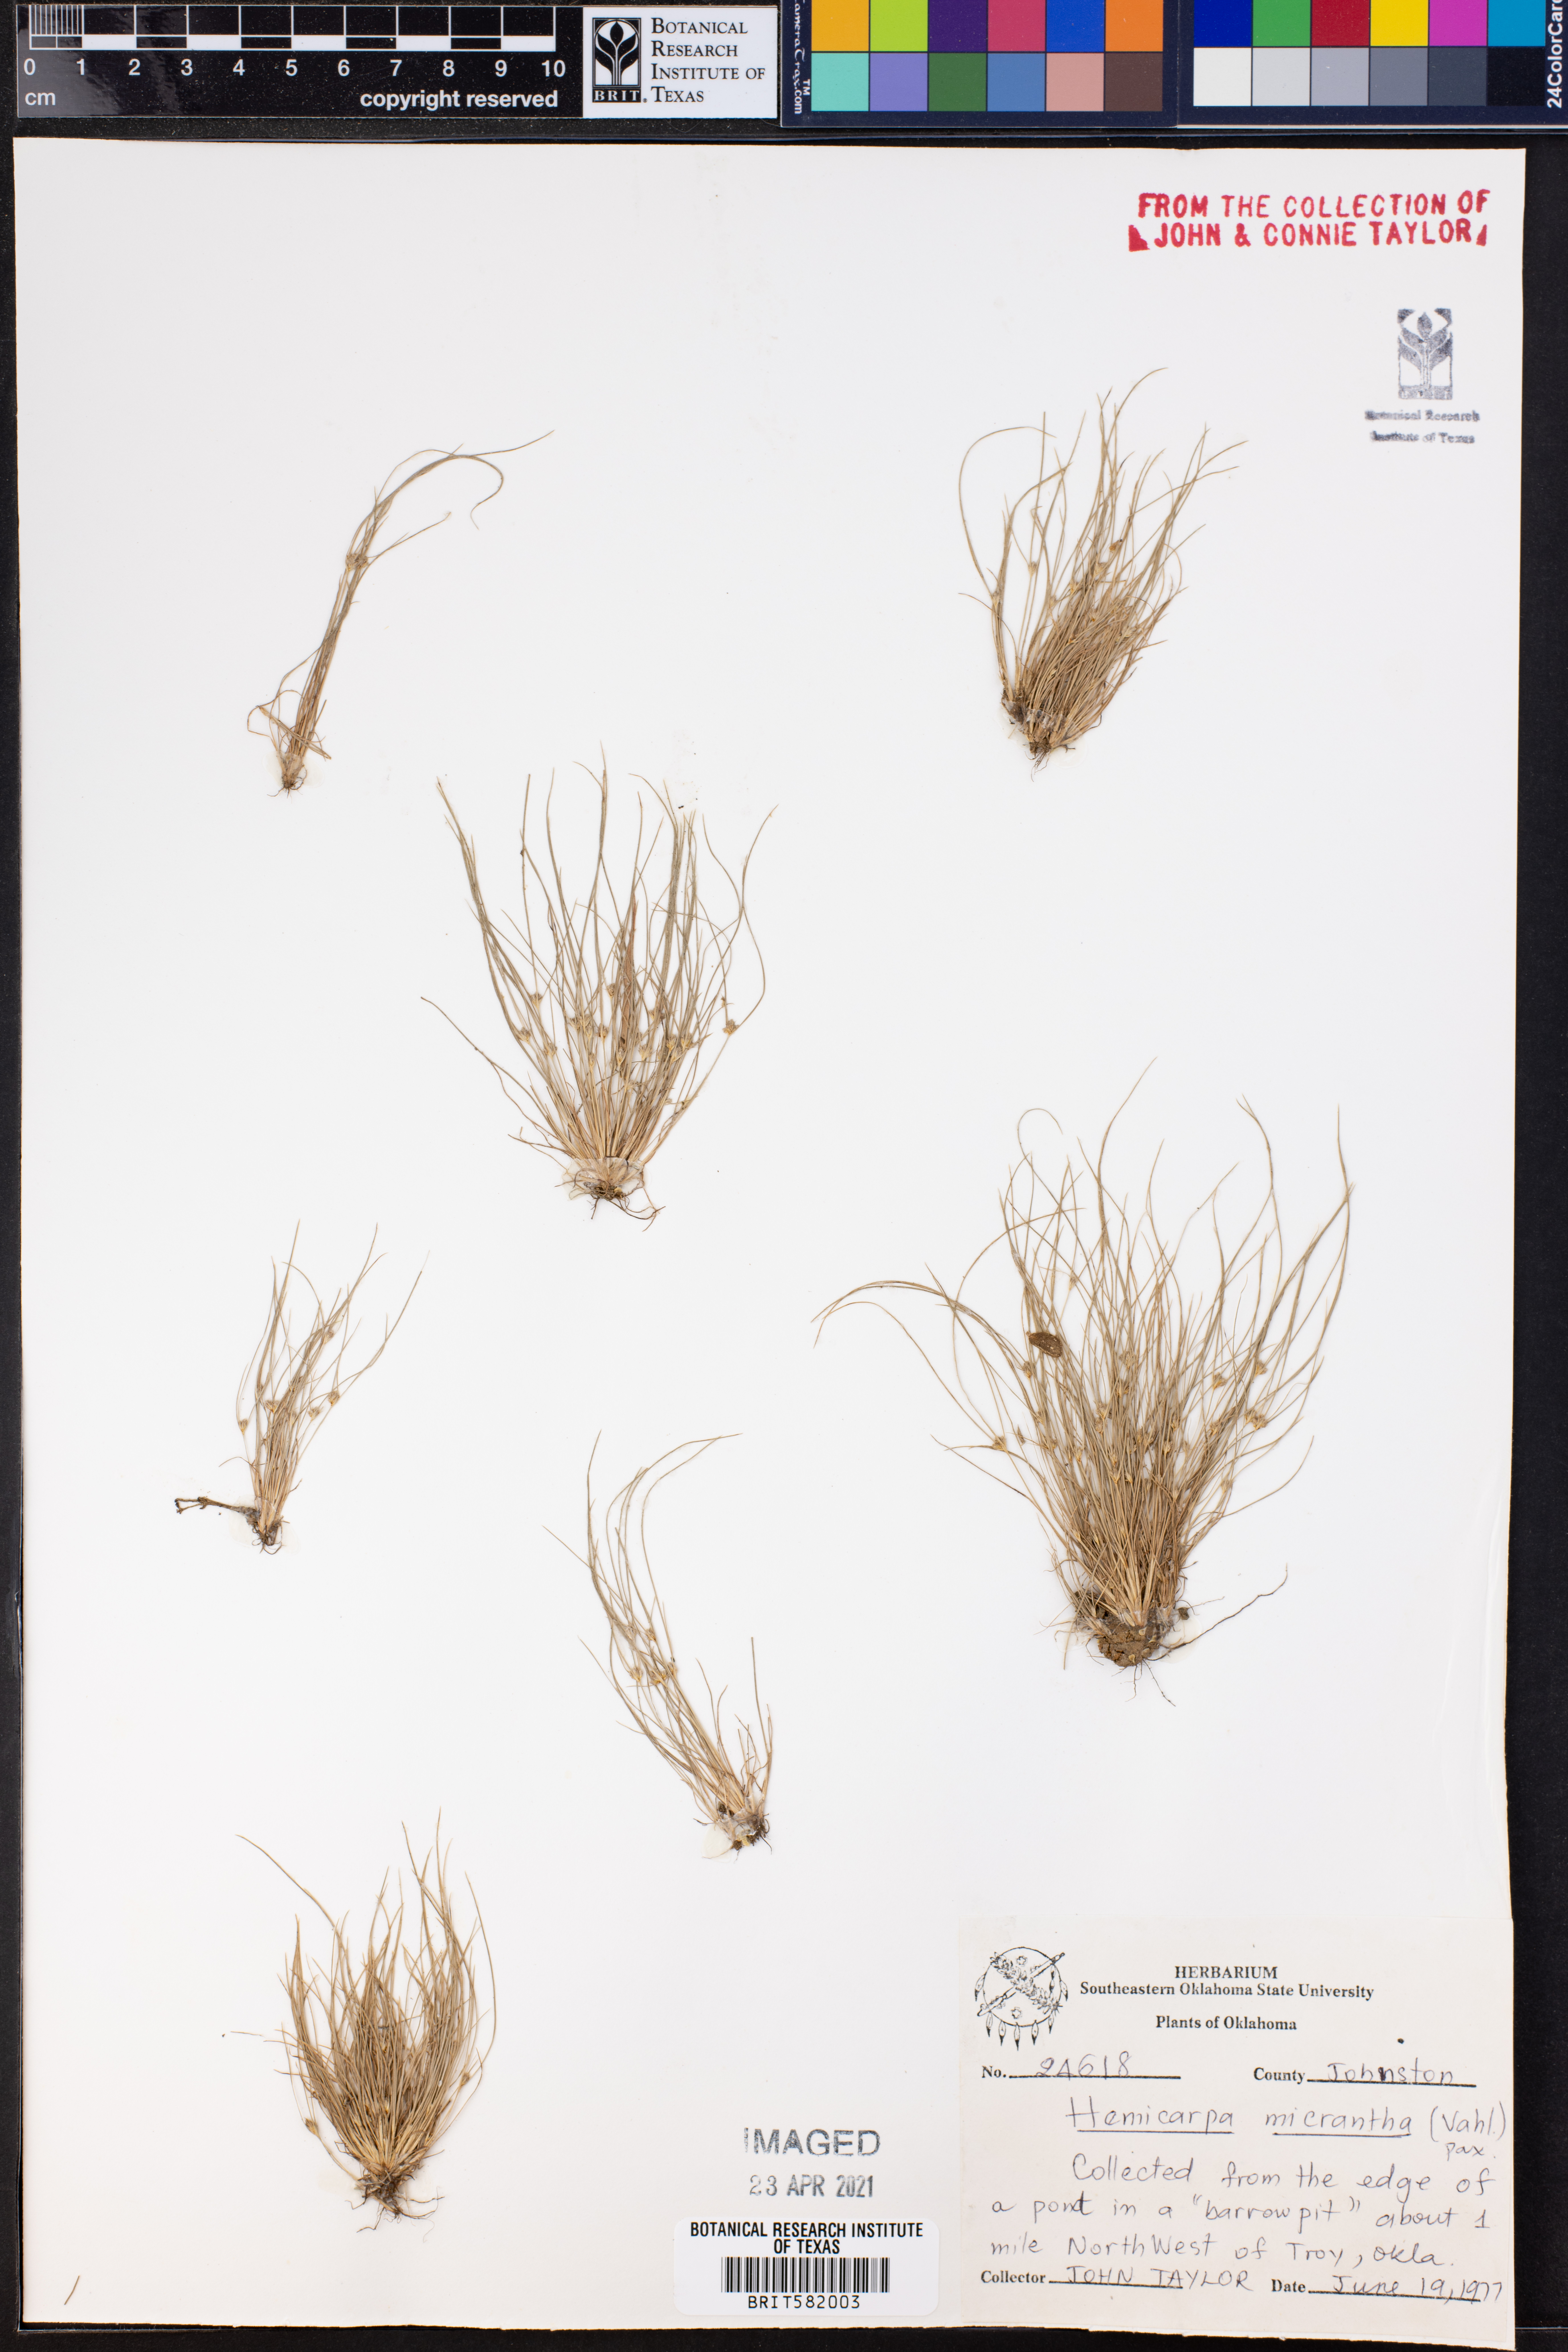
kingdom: Plantae
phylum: Tracheophyta
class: Liliopsida
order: Poales
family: Cyperaceae
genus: Cyperus
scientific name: Cyperus subsquarrosus
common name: Dwarf bulrush
